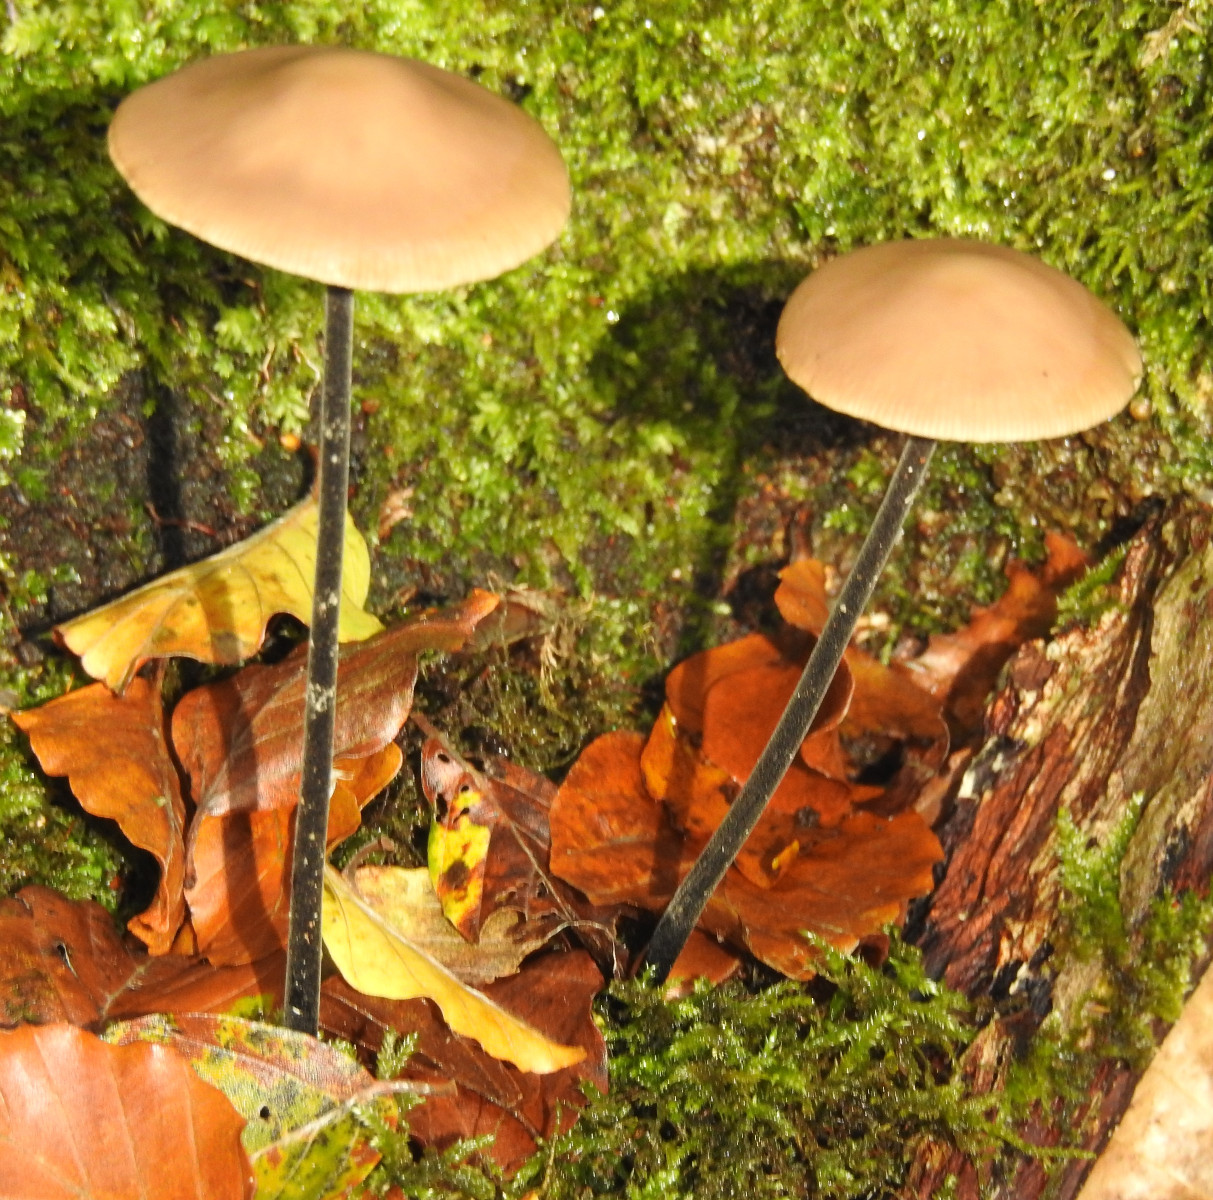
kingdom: Fungi
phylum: Basidiomycota
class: Agaricomycetes
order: Agaricales
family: Omphalotaceae
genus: Mycetinis
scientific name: Mycetinis alliaceus
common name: stor løghat
